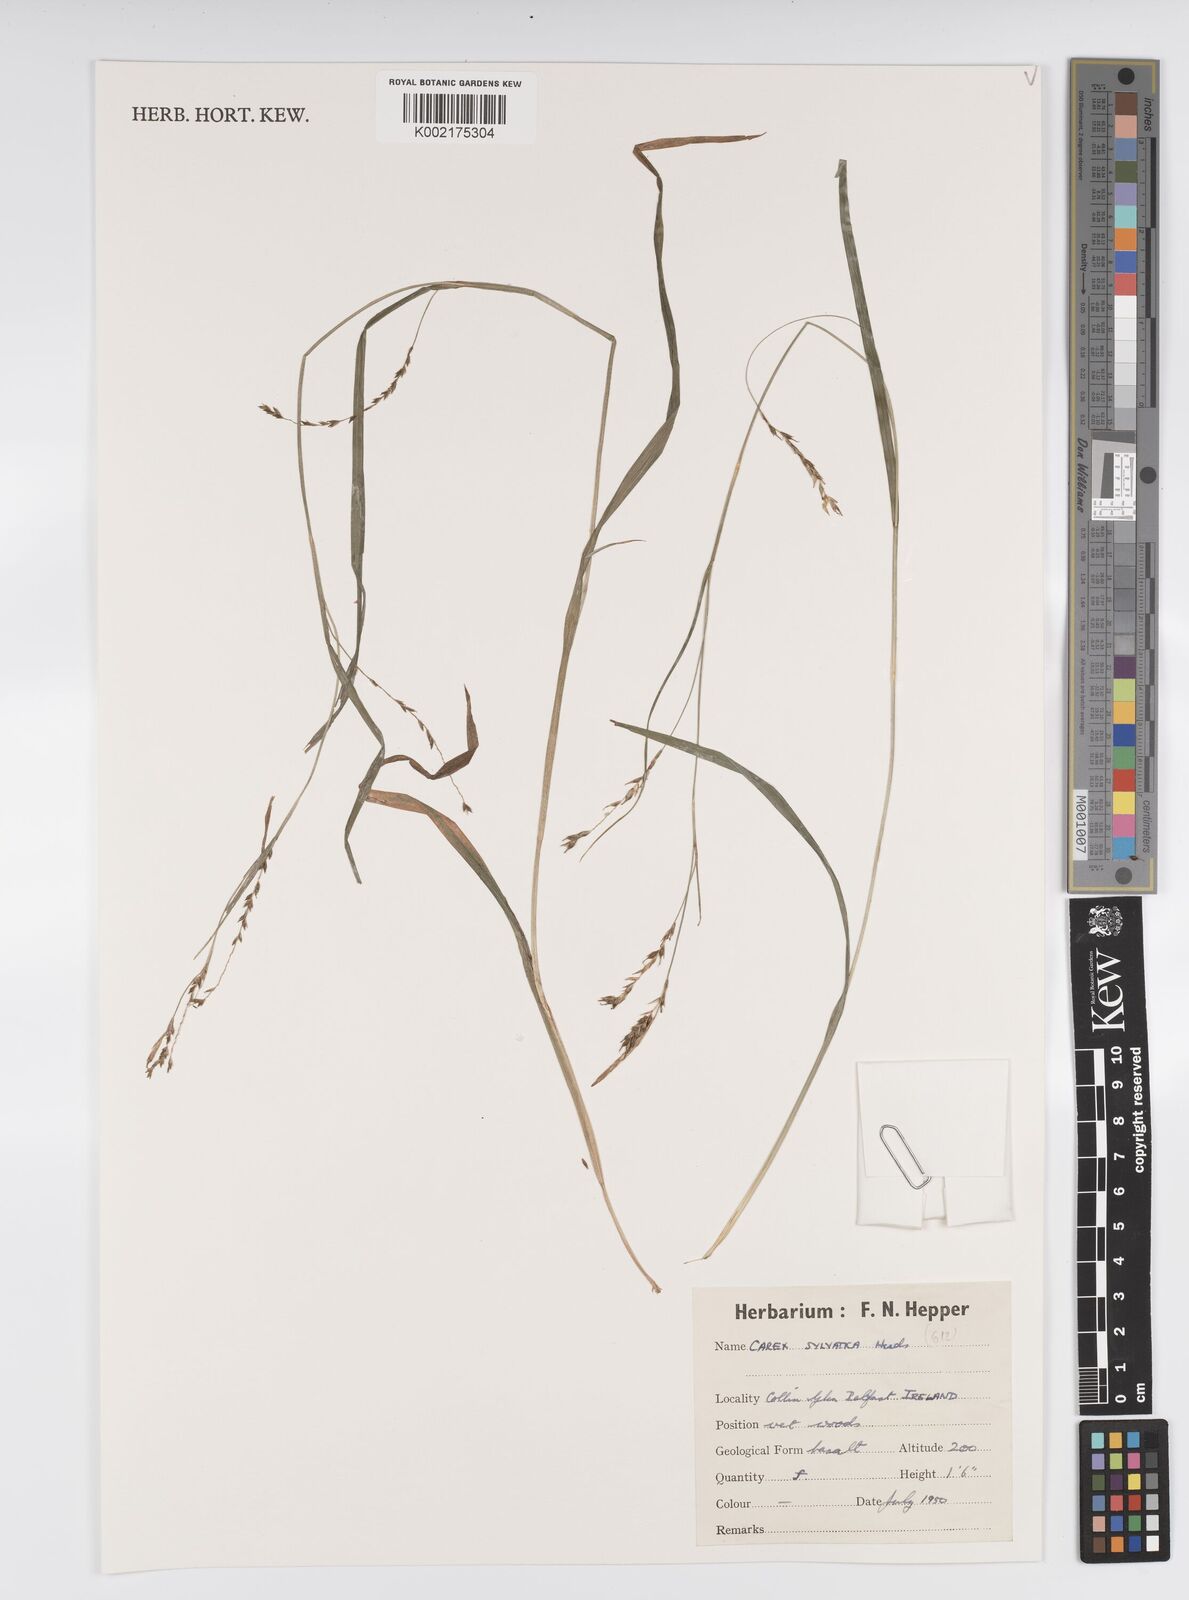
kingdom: Plantae
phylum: Tracheophyta
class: Liliopsida
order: Poales
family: Cyperaceae
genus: Carex
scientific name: Carex sylvatica
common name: Wood-sedge
